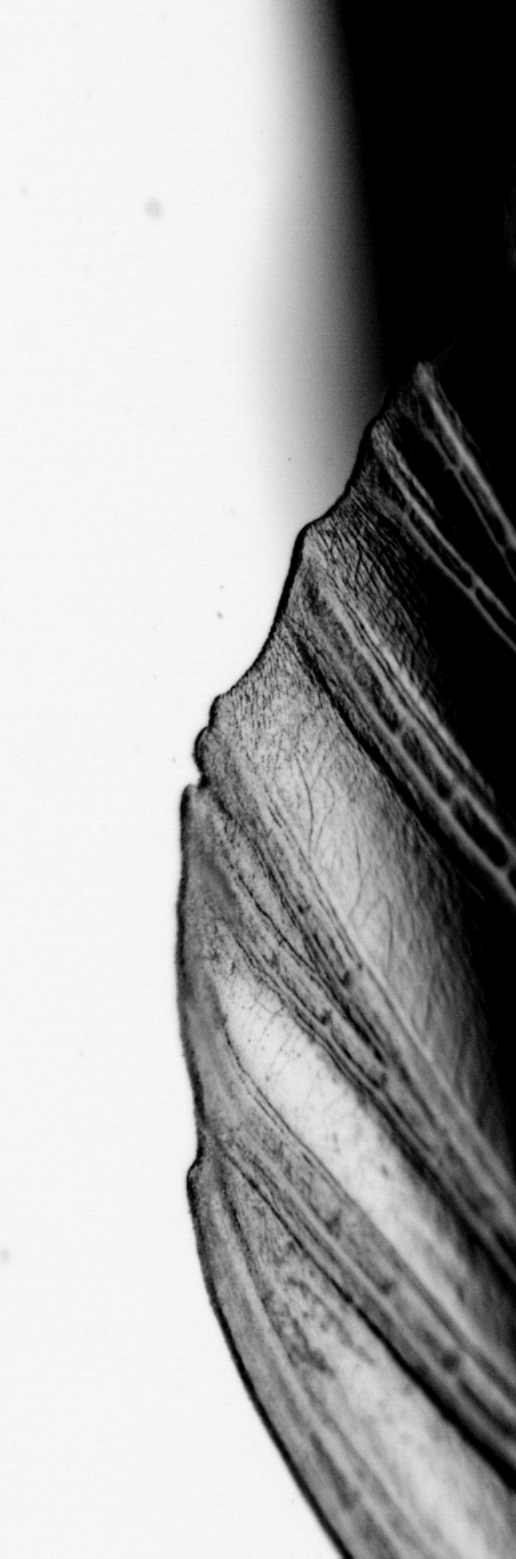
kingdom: Animalia
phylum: Chordata
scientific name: Chordata
